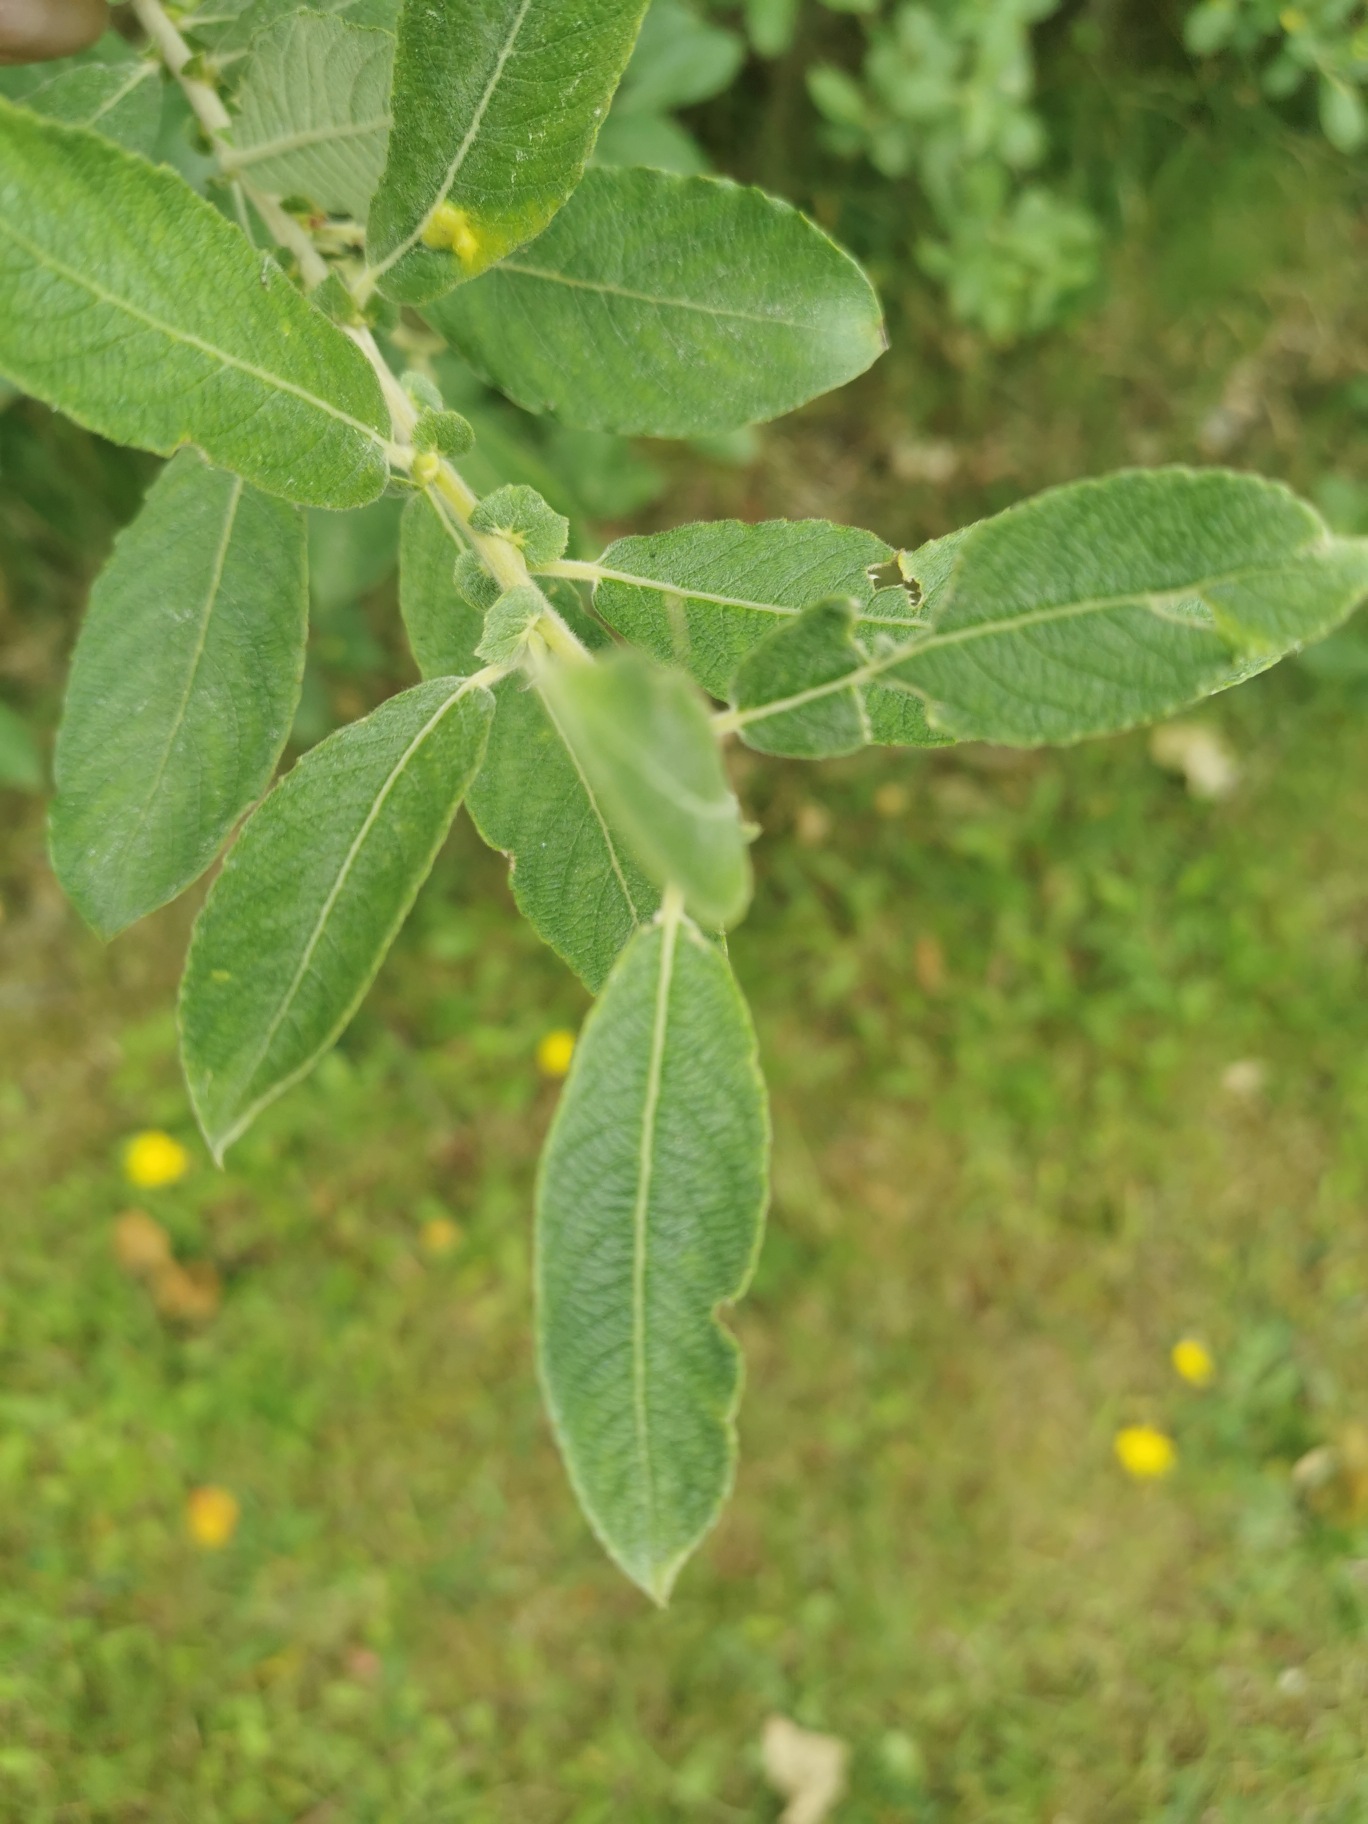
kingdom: Plantae
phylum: Tracheophyta
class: Magnoliopsida
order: Malpighiales
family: Salicaceae
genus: Salix
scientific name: Salix cinerea
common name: Grå-pil
